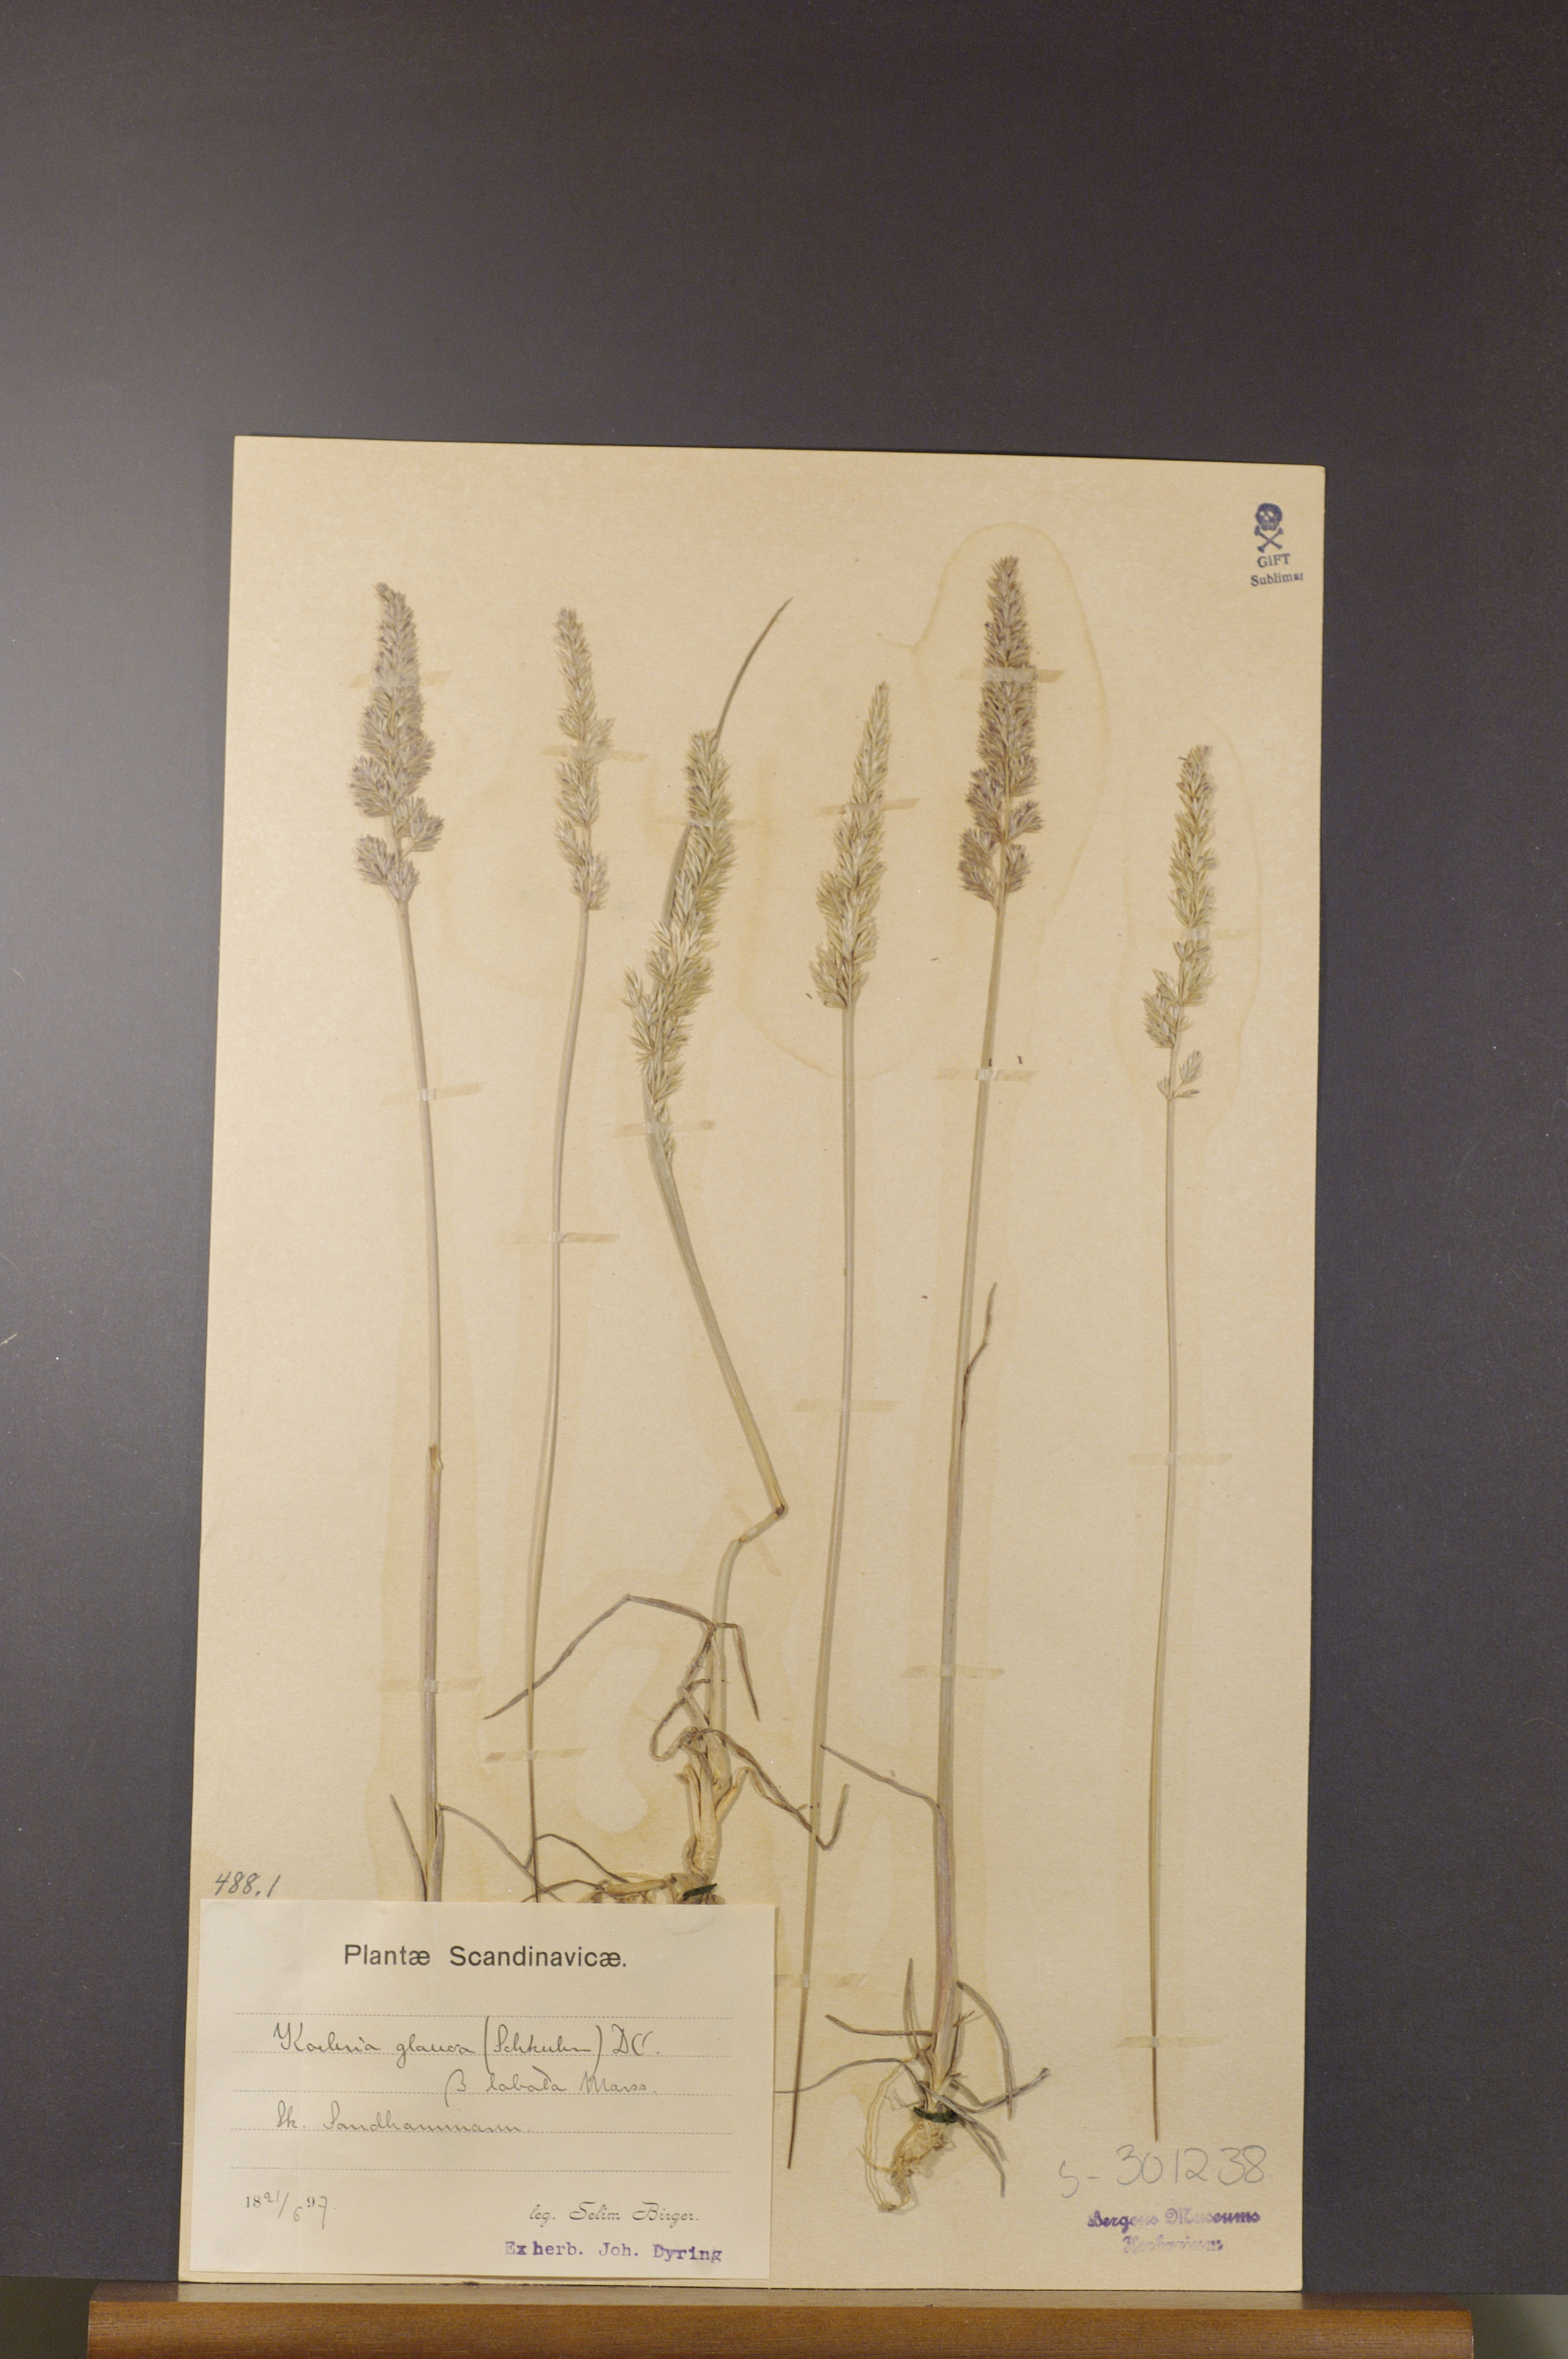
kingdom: Plantae
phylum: Tracheophyta
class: Liliopsida
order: Poales
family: Poaceae
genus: Koeleria
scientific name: Koeleria glauca
